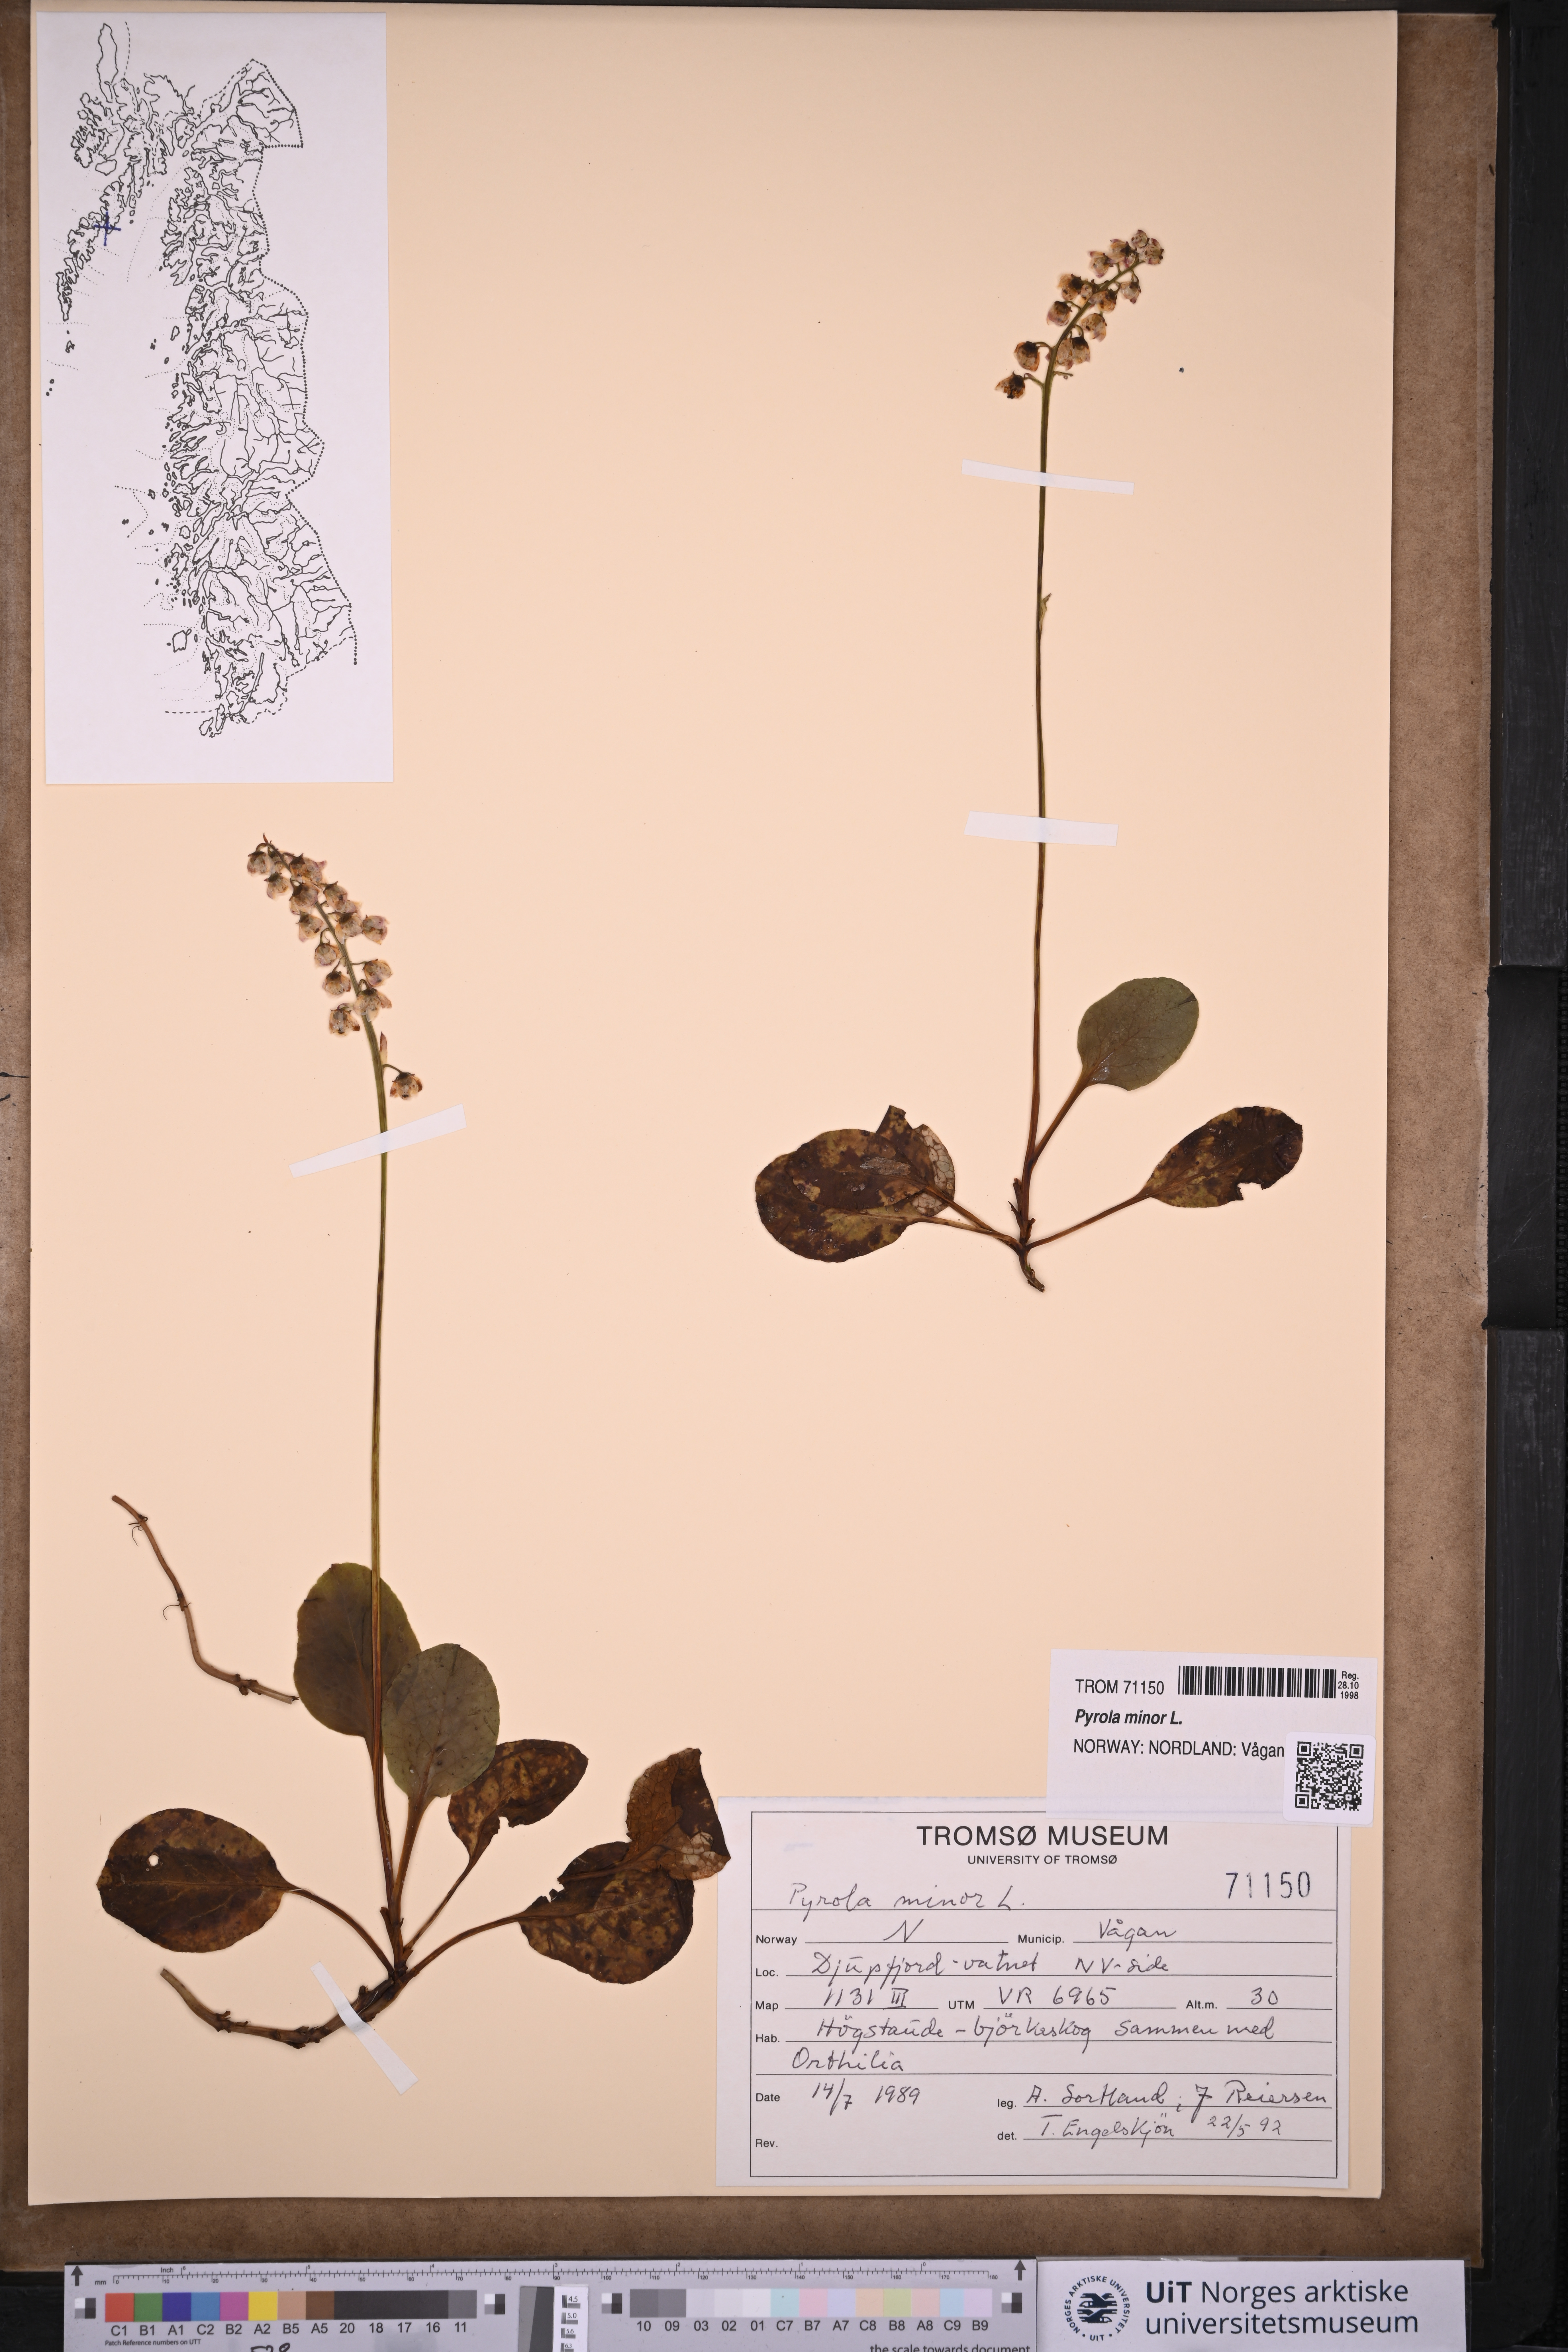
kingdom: Plantae
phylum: Tracheophyta
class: Magnoliopsida
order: Ericales
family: Ericaceae
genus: Pyrola
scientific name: Pyrola minor
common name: Common wintergreen
